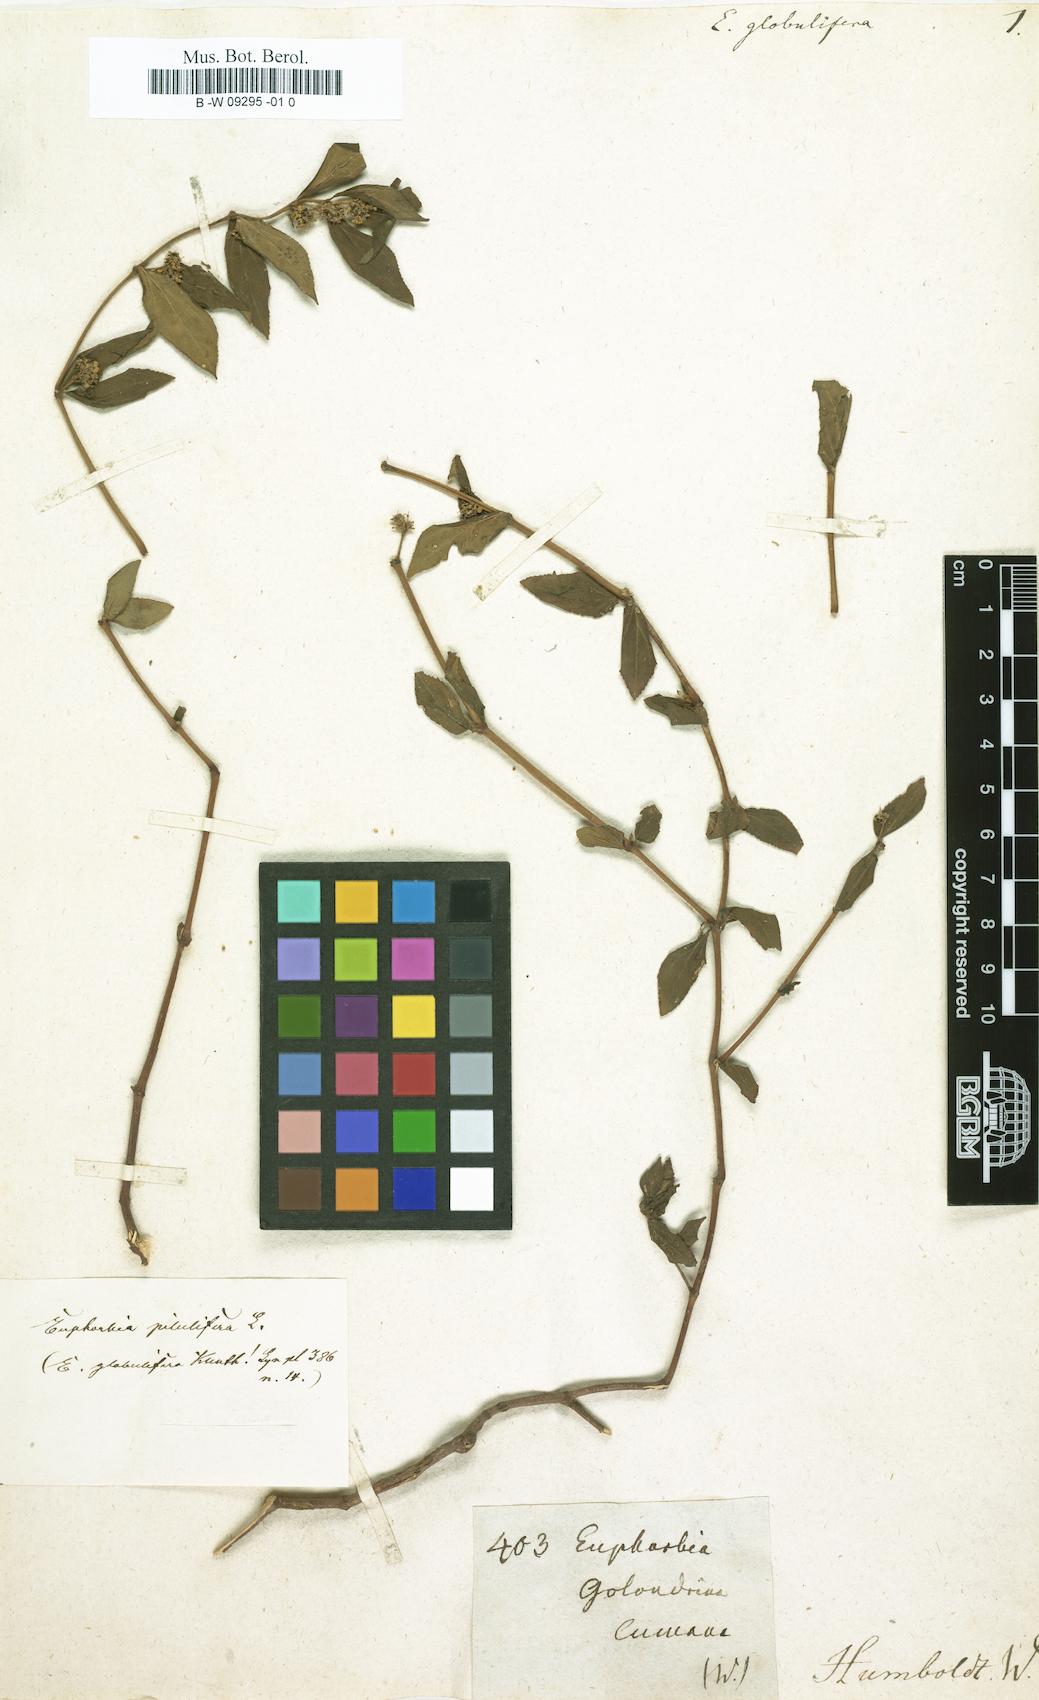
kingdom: Plantae
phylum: Tracheophyta
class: Magnoliopsida
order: Malpighiales
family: Euphorbiaceae
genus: Euphorbia
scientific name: Euphorbia hirta
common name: Pillpod sandmat
